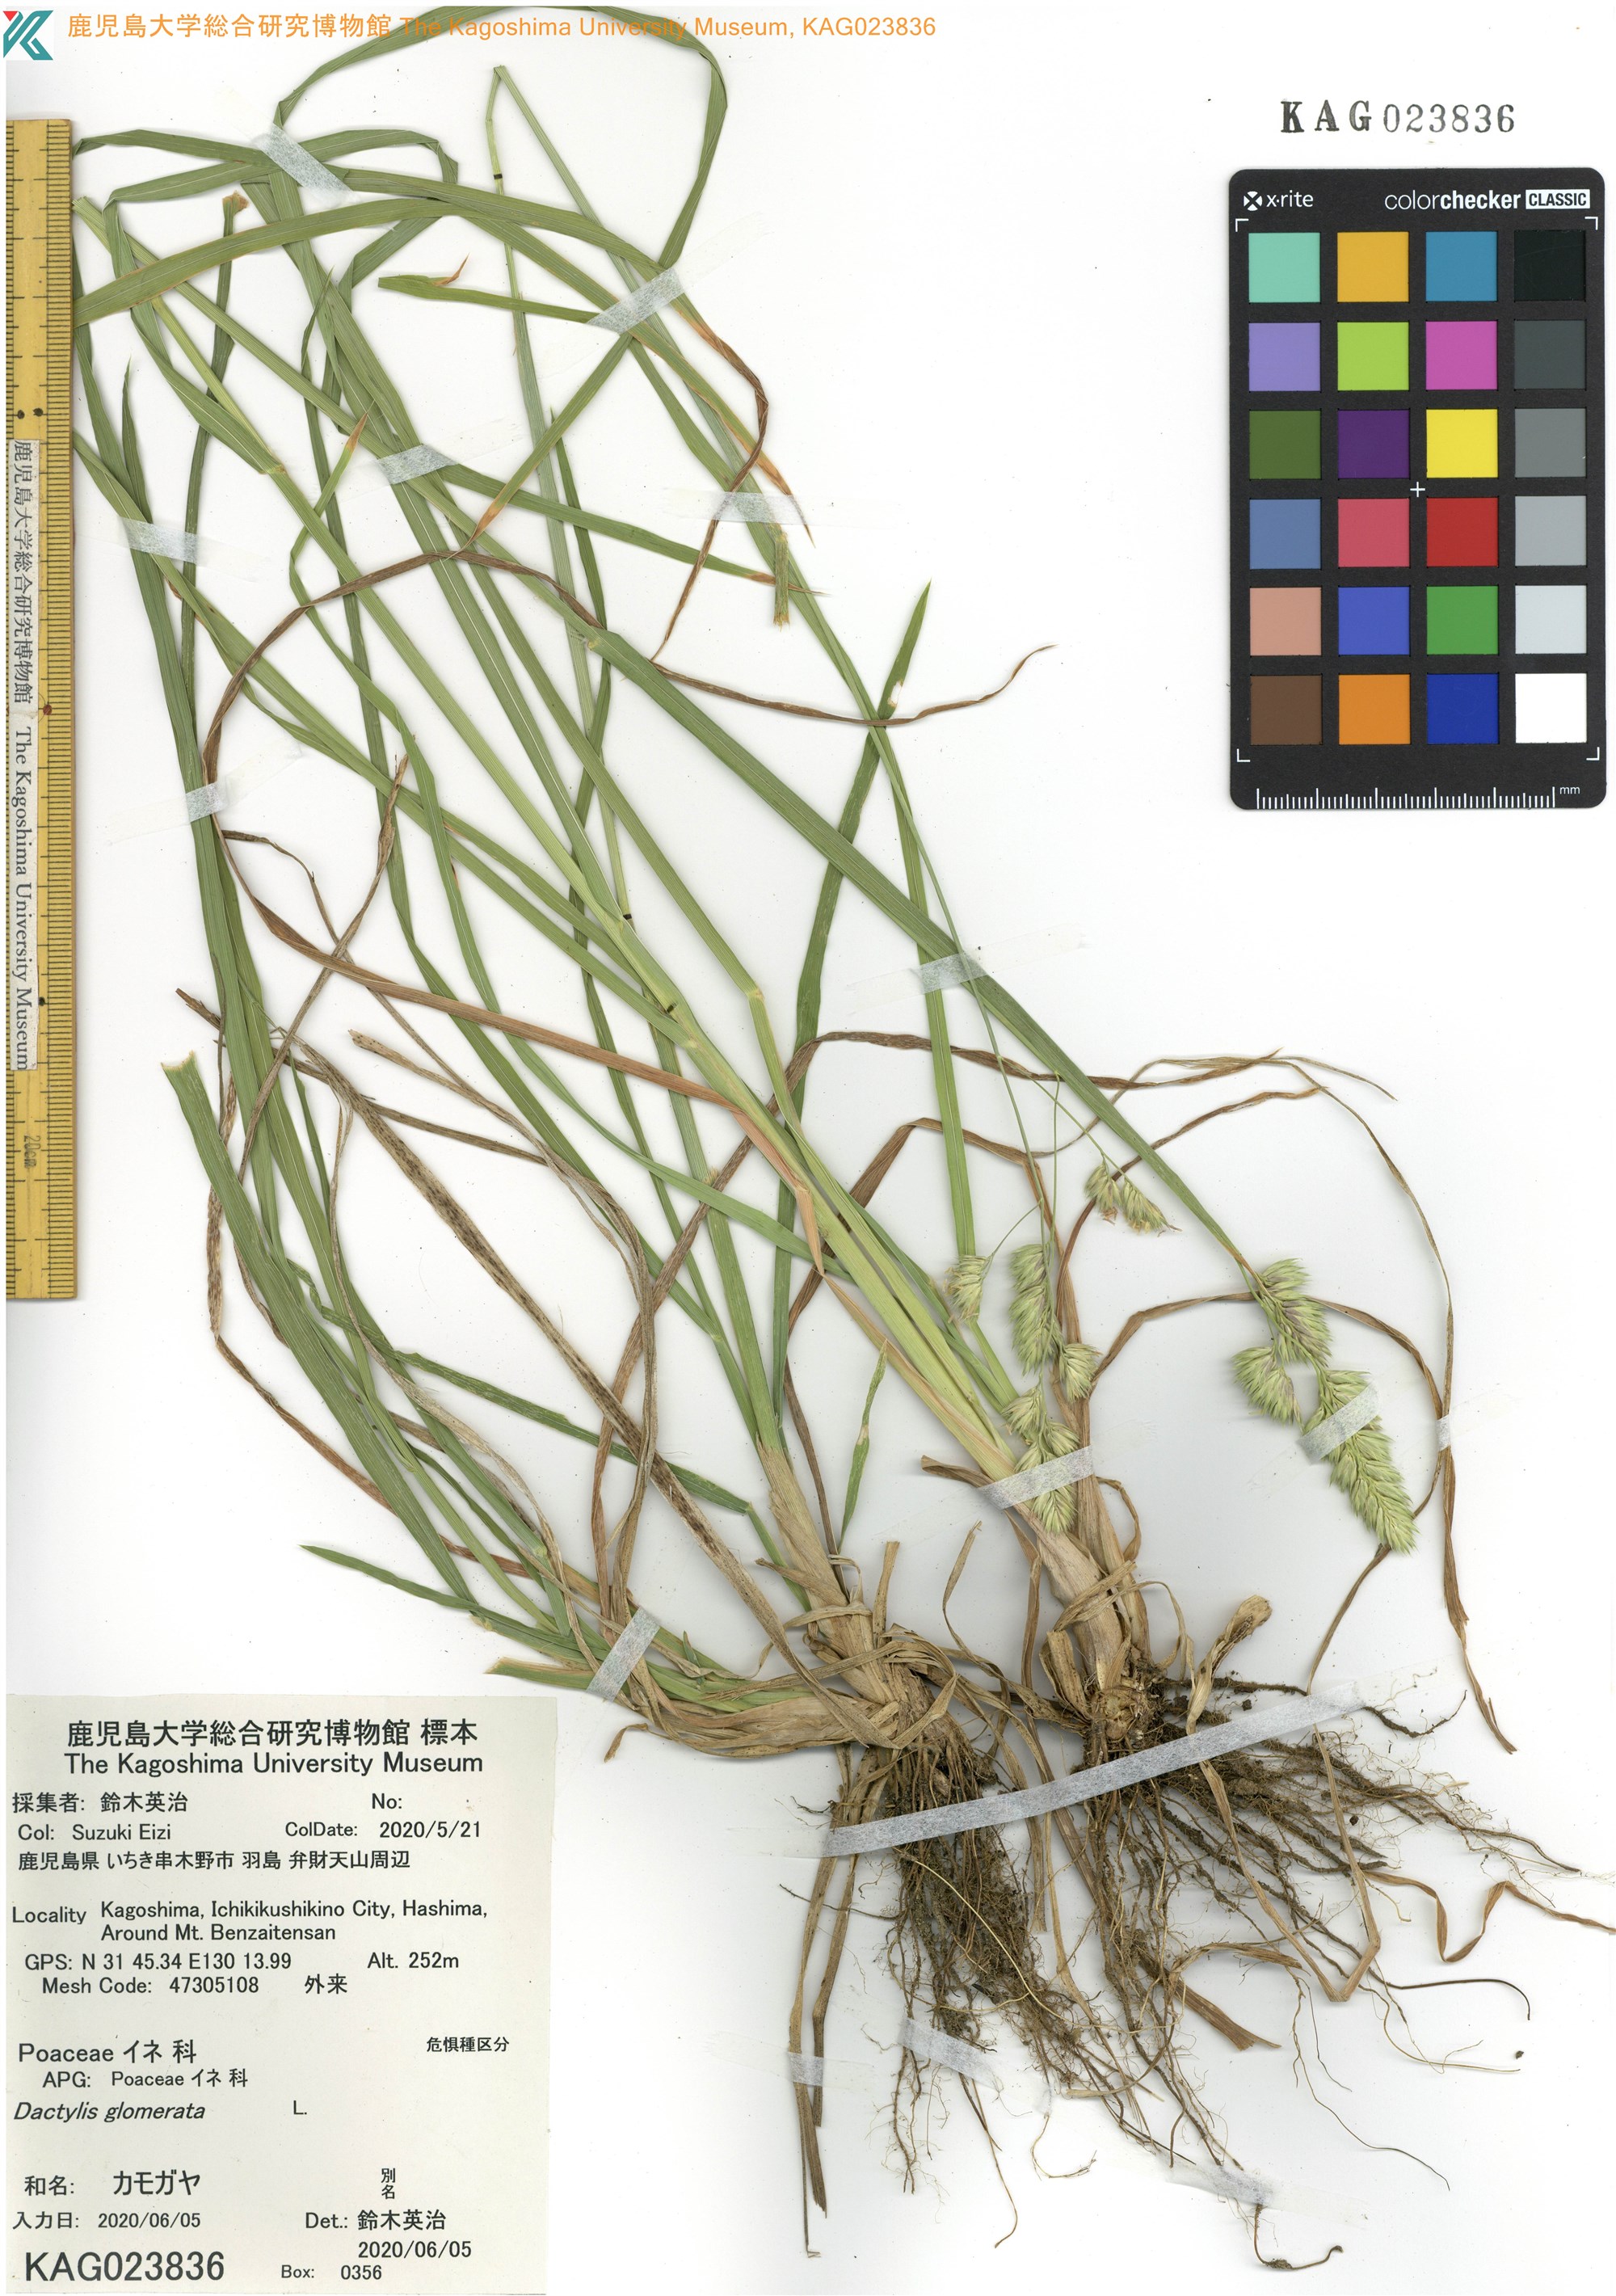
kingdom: Plantae
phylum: Tracheophyta
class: Liliopsida
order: Poales
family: Poaceae
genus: Dactylis
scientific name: Dactylis glomerata
